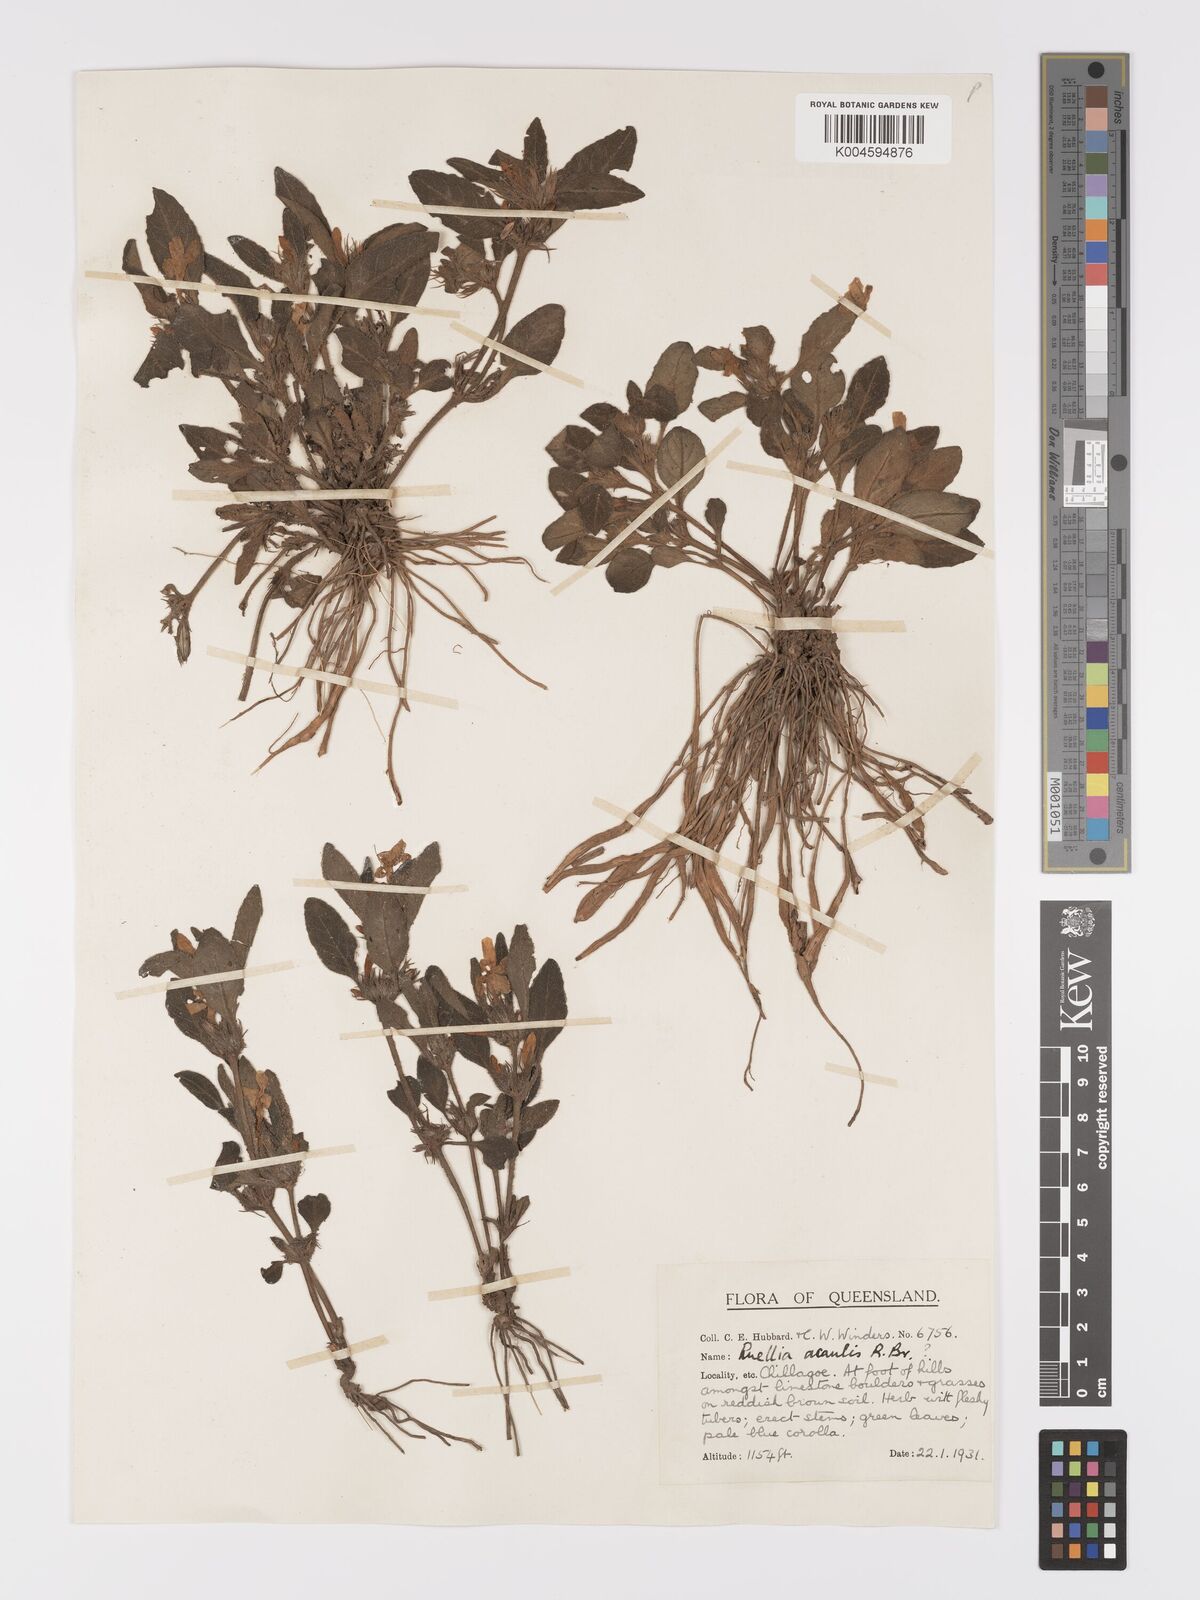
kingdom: Plantae
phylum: Tracheophyta
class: Magnoliopsida
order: Lamiales
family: Acanthaceae
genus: Brunoniella
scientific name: Brunoniella australis
